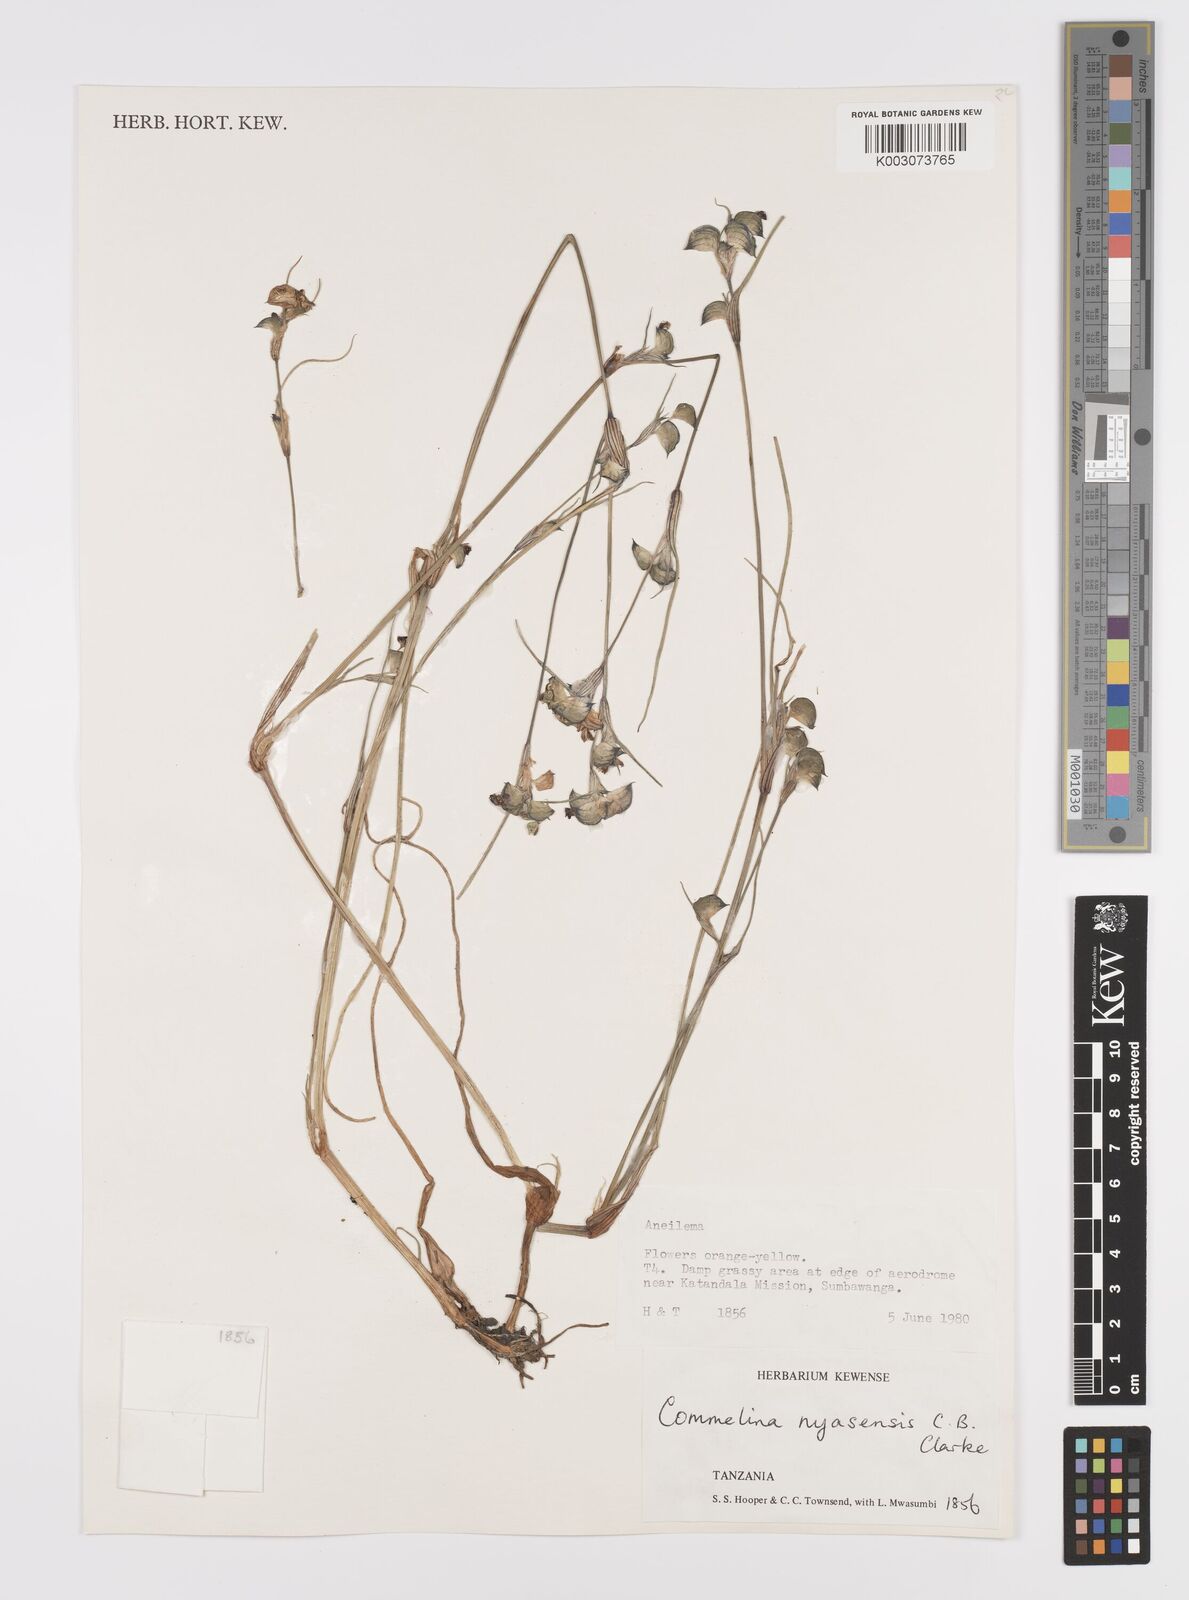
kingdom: Plantae
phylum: Tracheophyta
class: Liliopsida
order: Commelinales
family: Commelinaceae
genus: Commelina
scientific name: Commelina nyasensis
